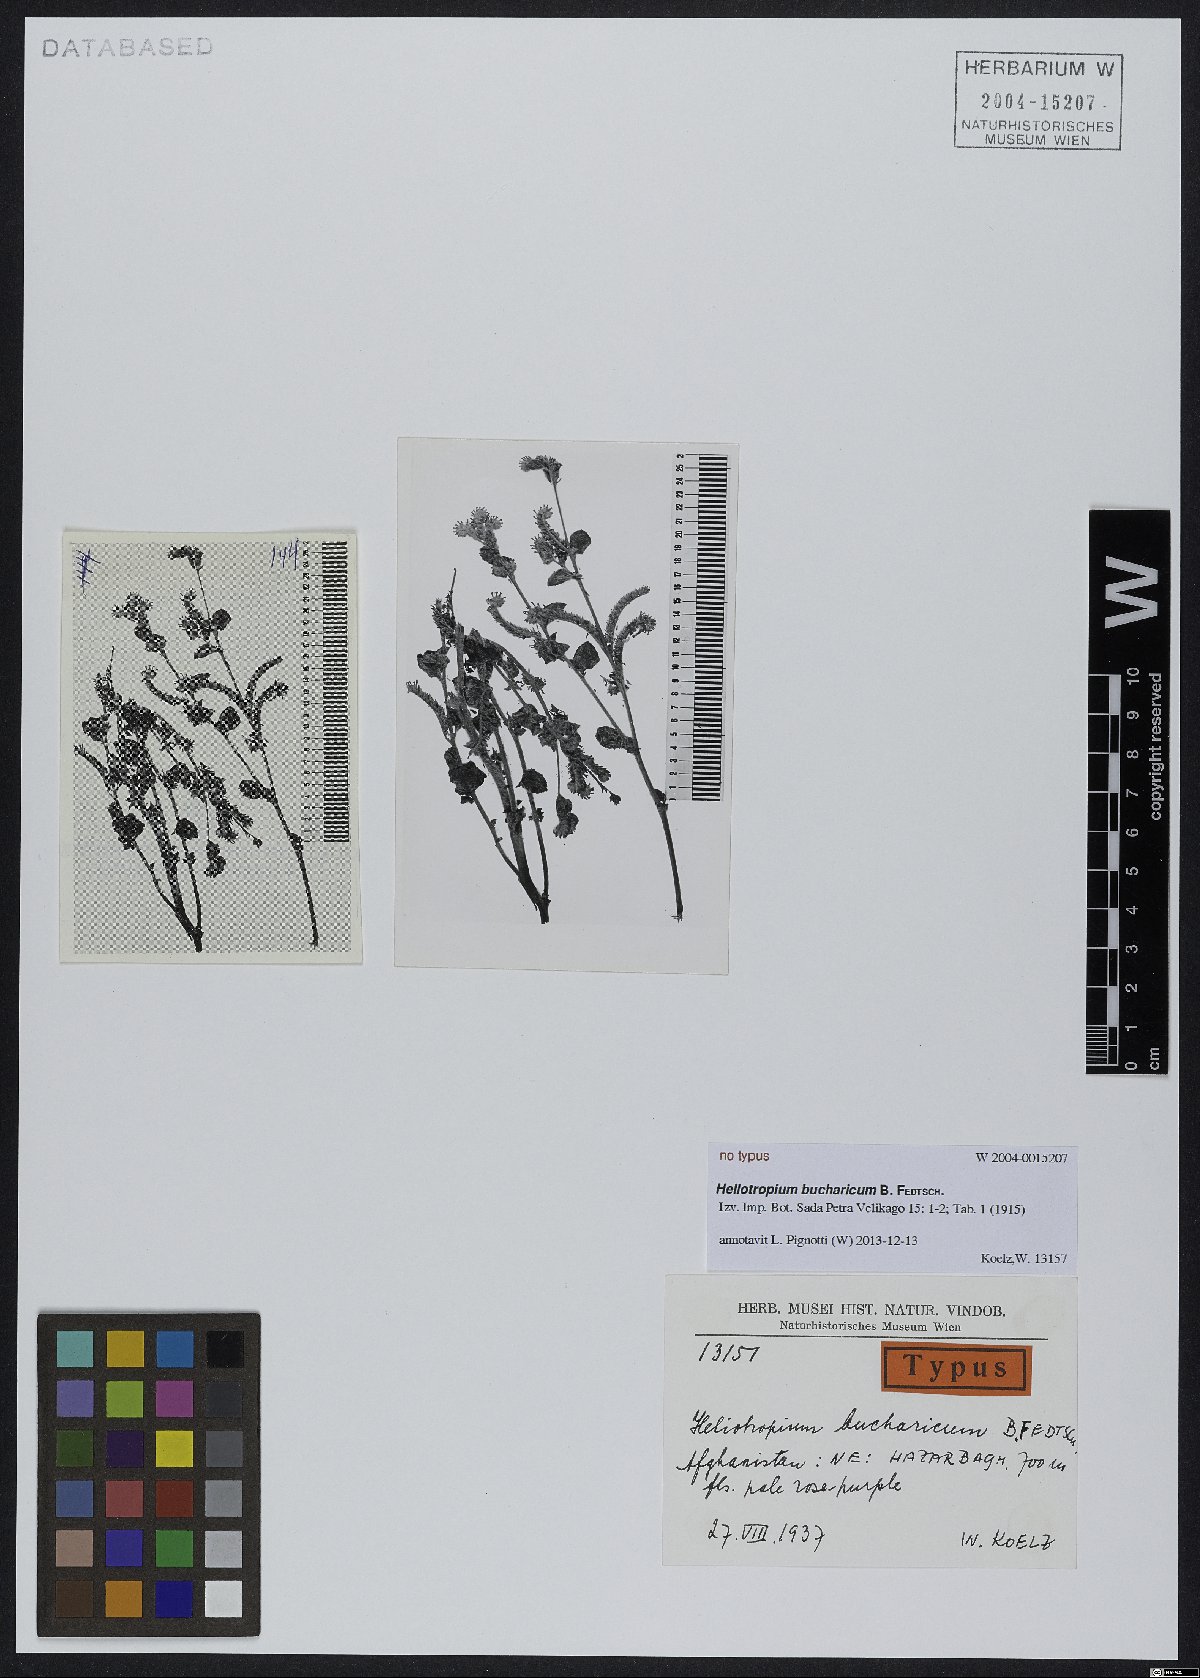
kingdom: Plantae
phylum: Tracheophyta
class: Magnoliopsida
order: Boraginales
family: Heliotropiaceae
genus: Heliotropium
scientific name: Heliotropium bucharicum
